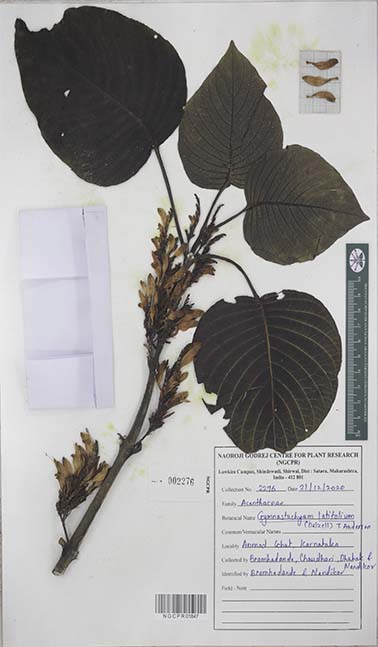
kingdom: Plantae
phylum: Tracheophyta
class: Magnoliopsida
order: Lamiales
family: Acanthaceae
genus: Gymnostachyum
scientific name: Gymnostachyum latifolium
